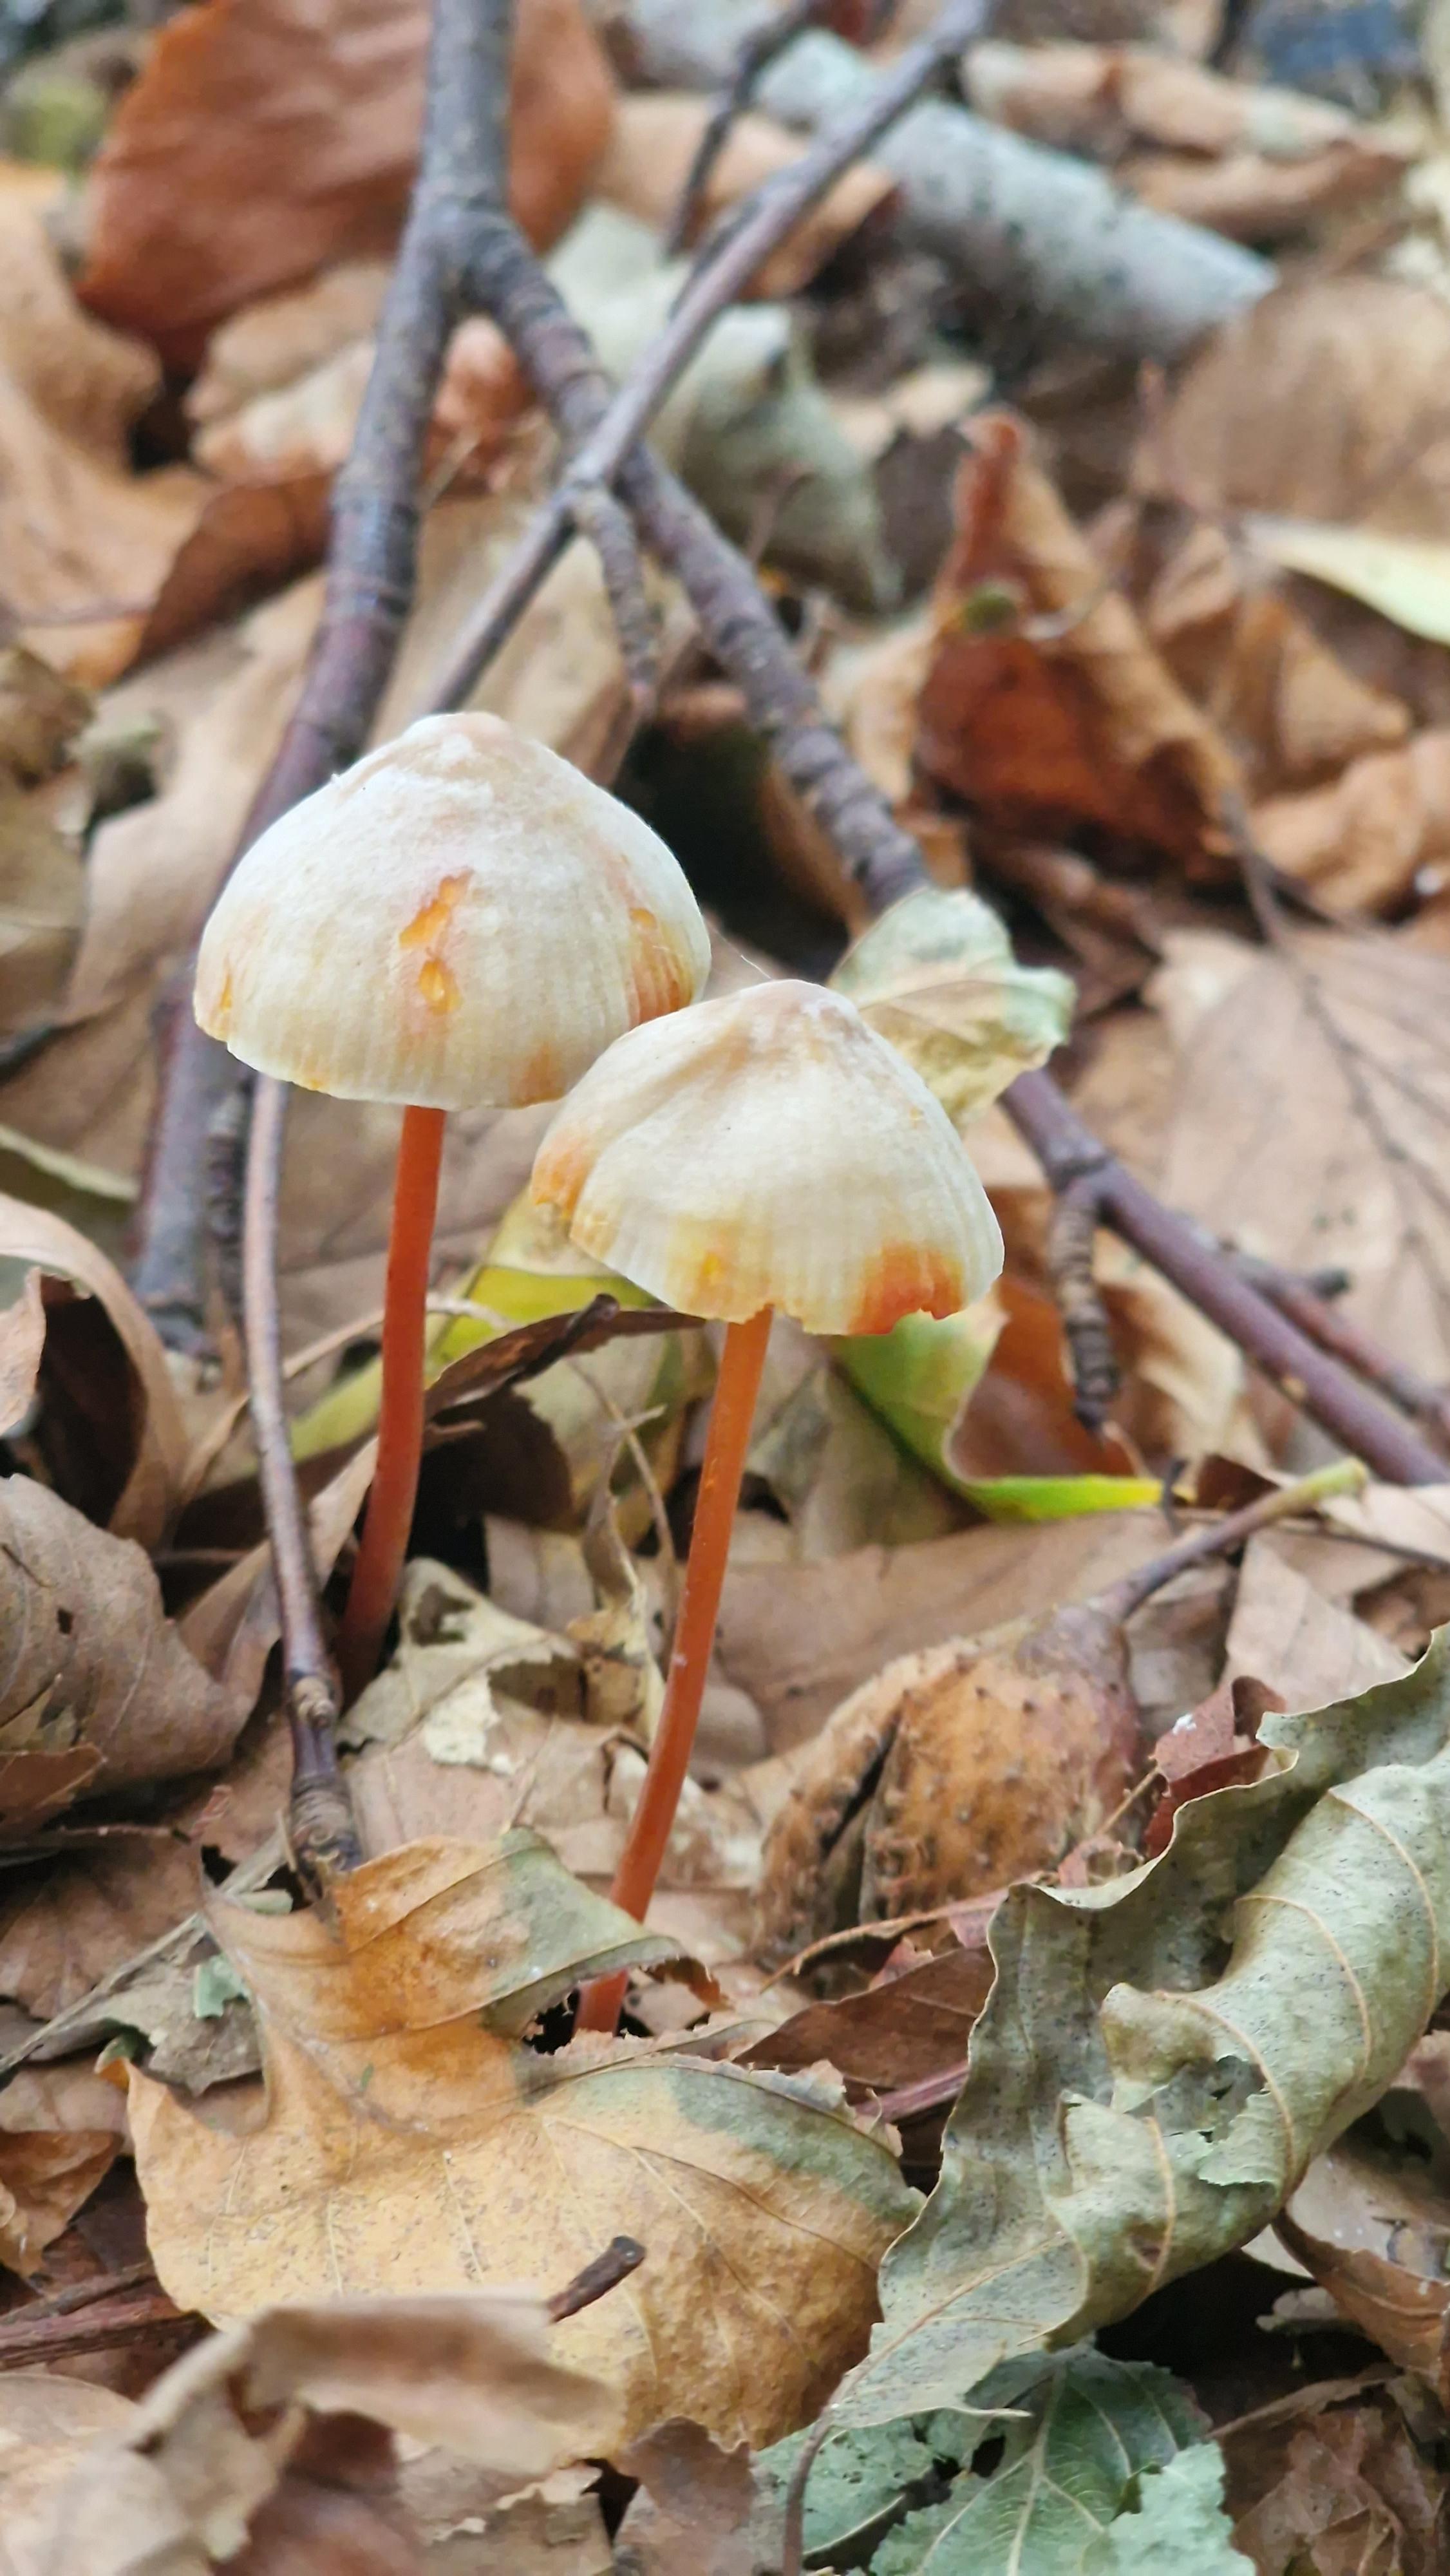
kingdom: Fungi
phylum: Basidiomycota
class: Agaricomycetes
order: Agaricales
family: Mycenaceae
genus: Mycena
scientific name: Mycena crocata
